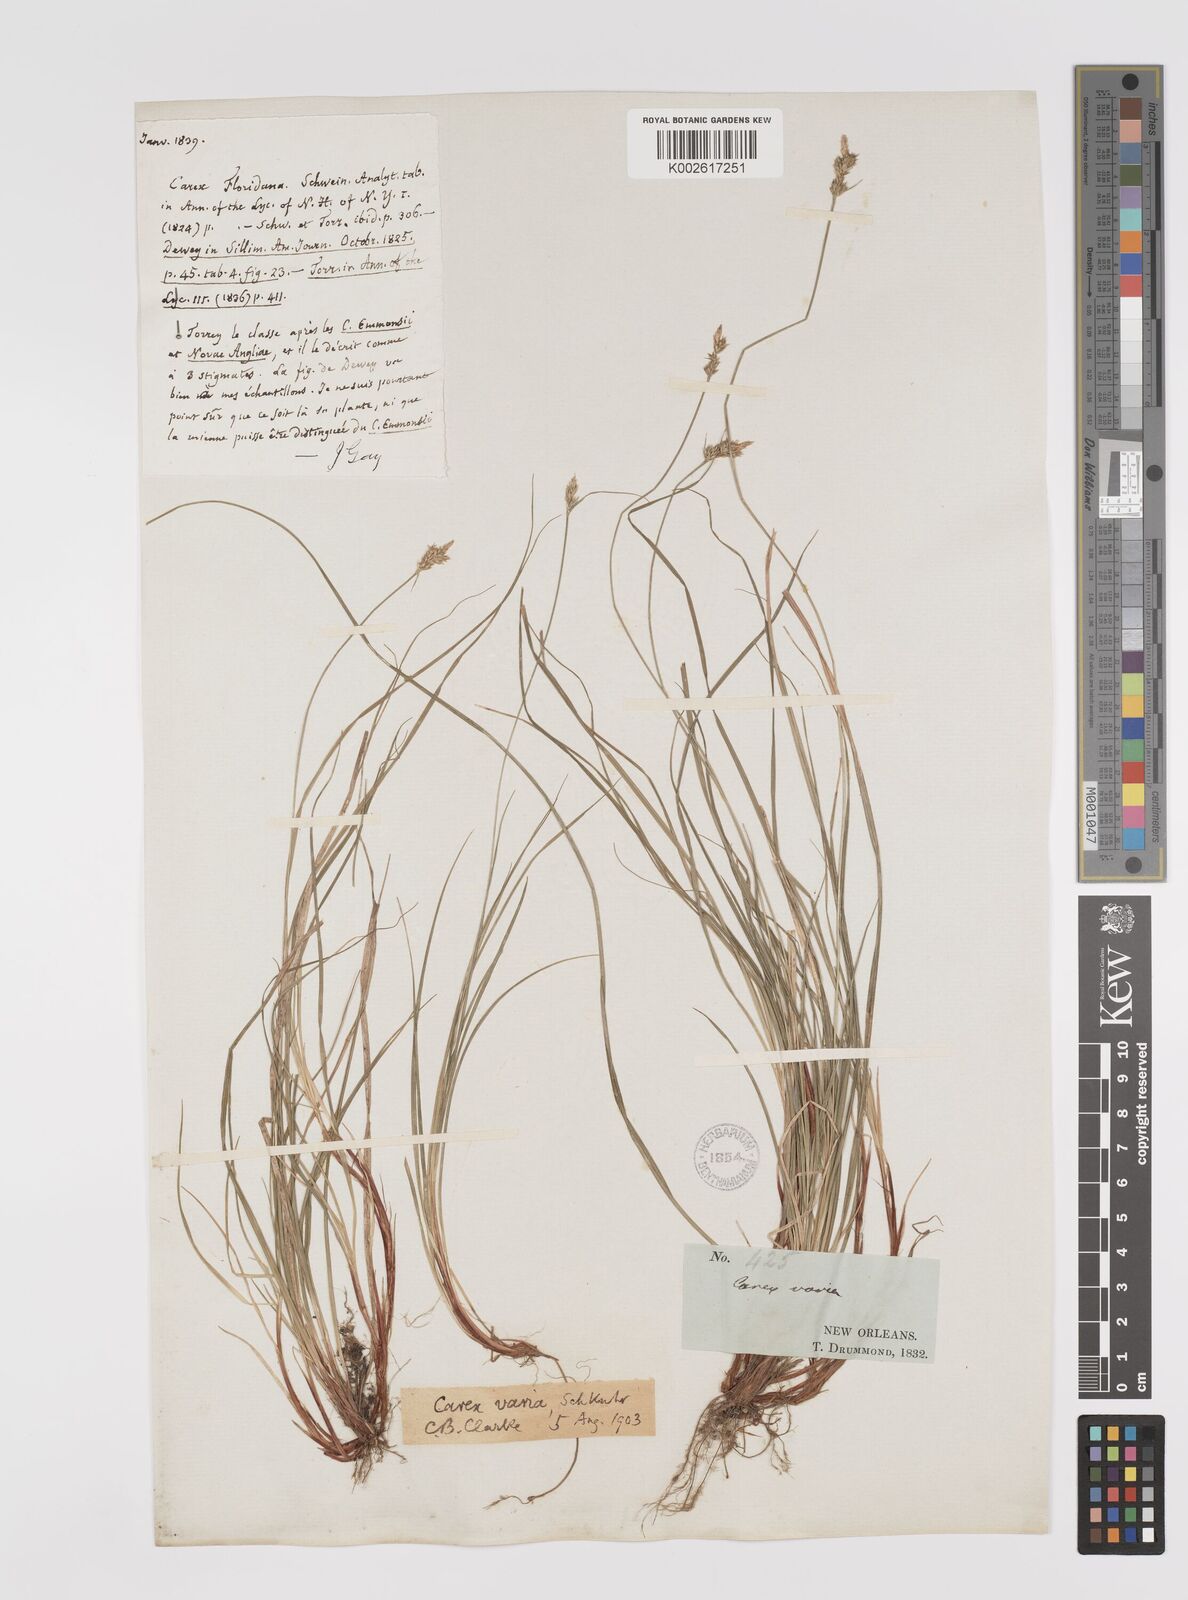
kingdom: Plantae
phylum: Tracheophyta
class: Liliopsida
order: Poales
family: Cyperaceae
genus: Carex
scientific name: Carex albicans
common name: Bellow-beaked sedge
